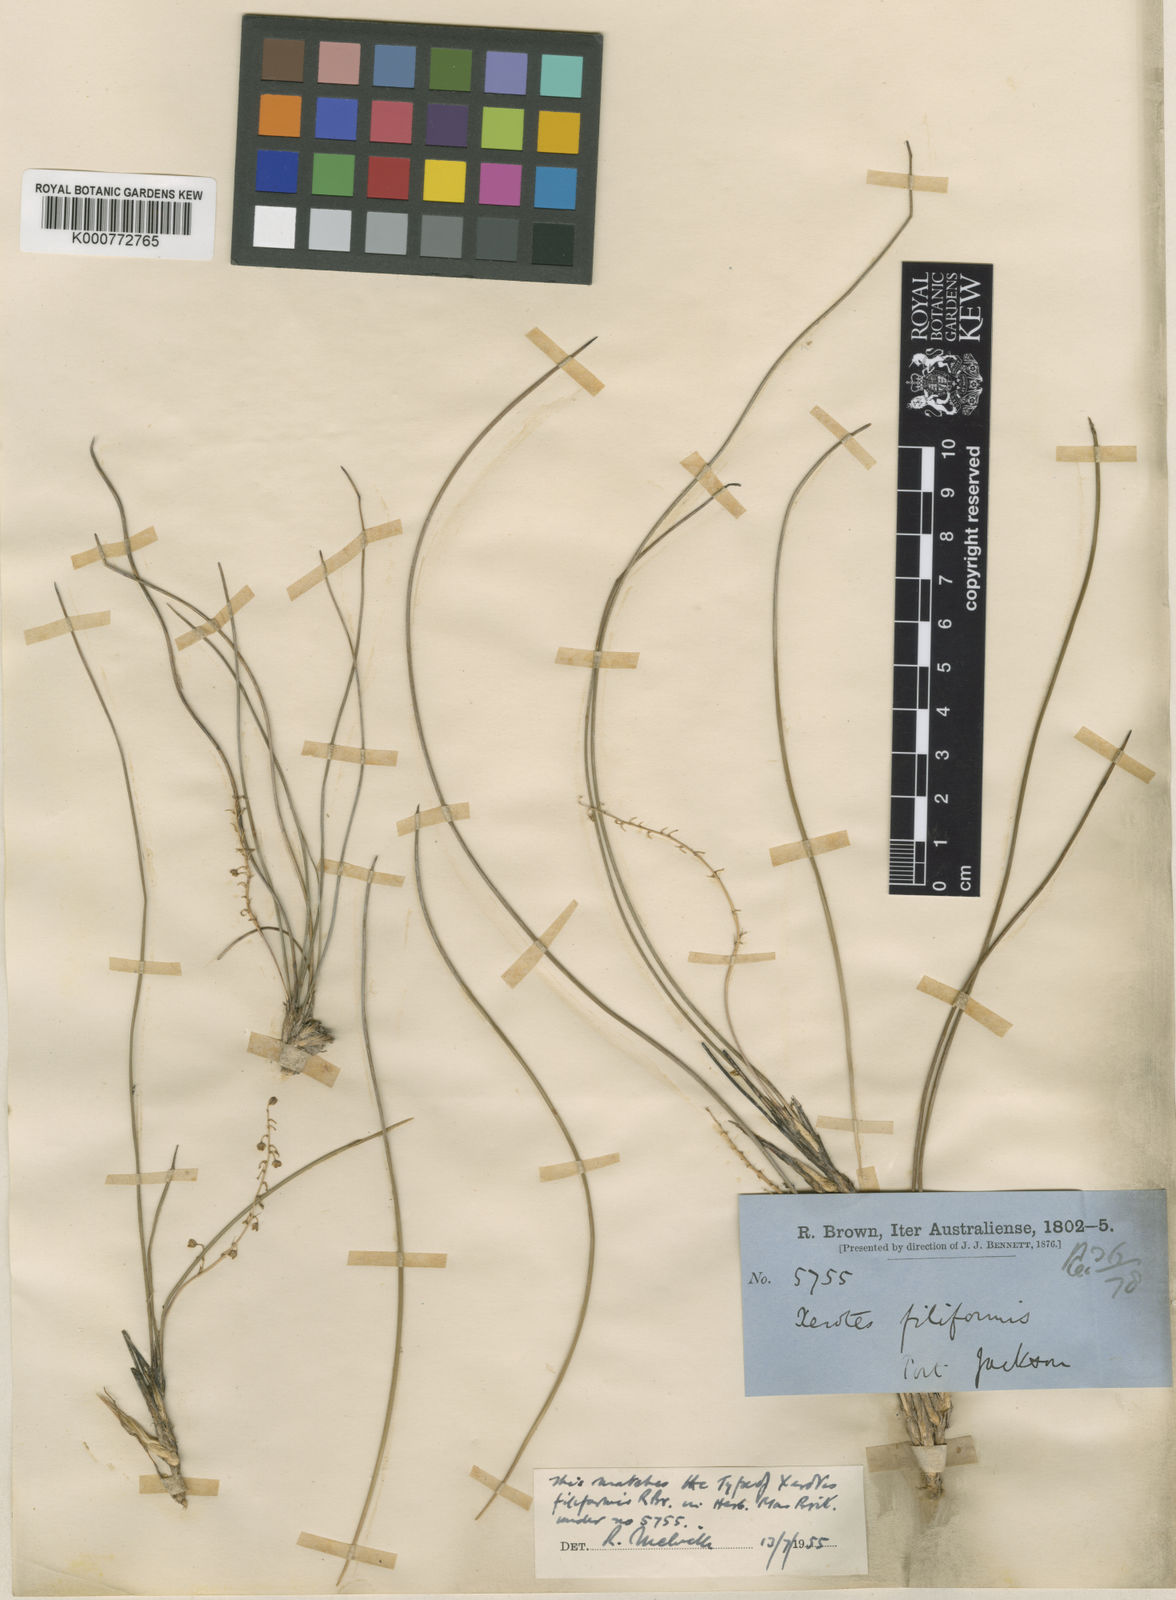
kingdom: Plantae
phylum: Tracheophyta
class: Liliopsida
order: Asparagales
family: Asparagaceae
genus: Lomandra
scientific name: Lomandra gracilis
